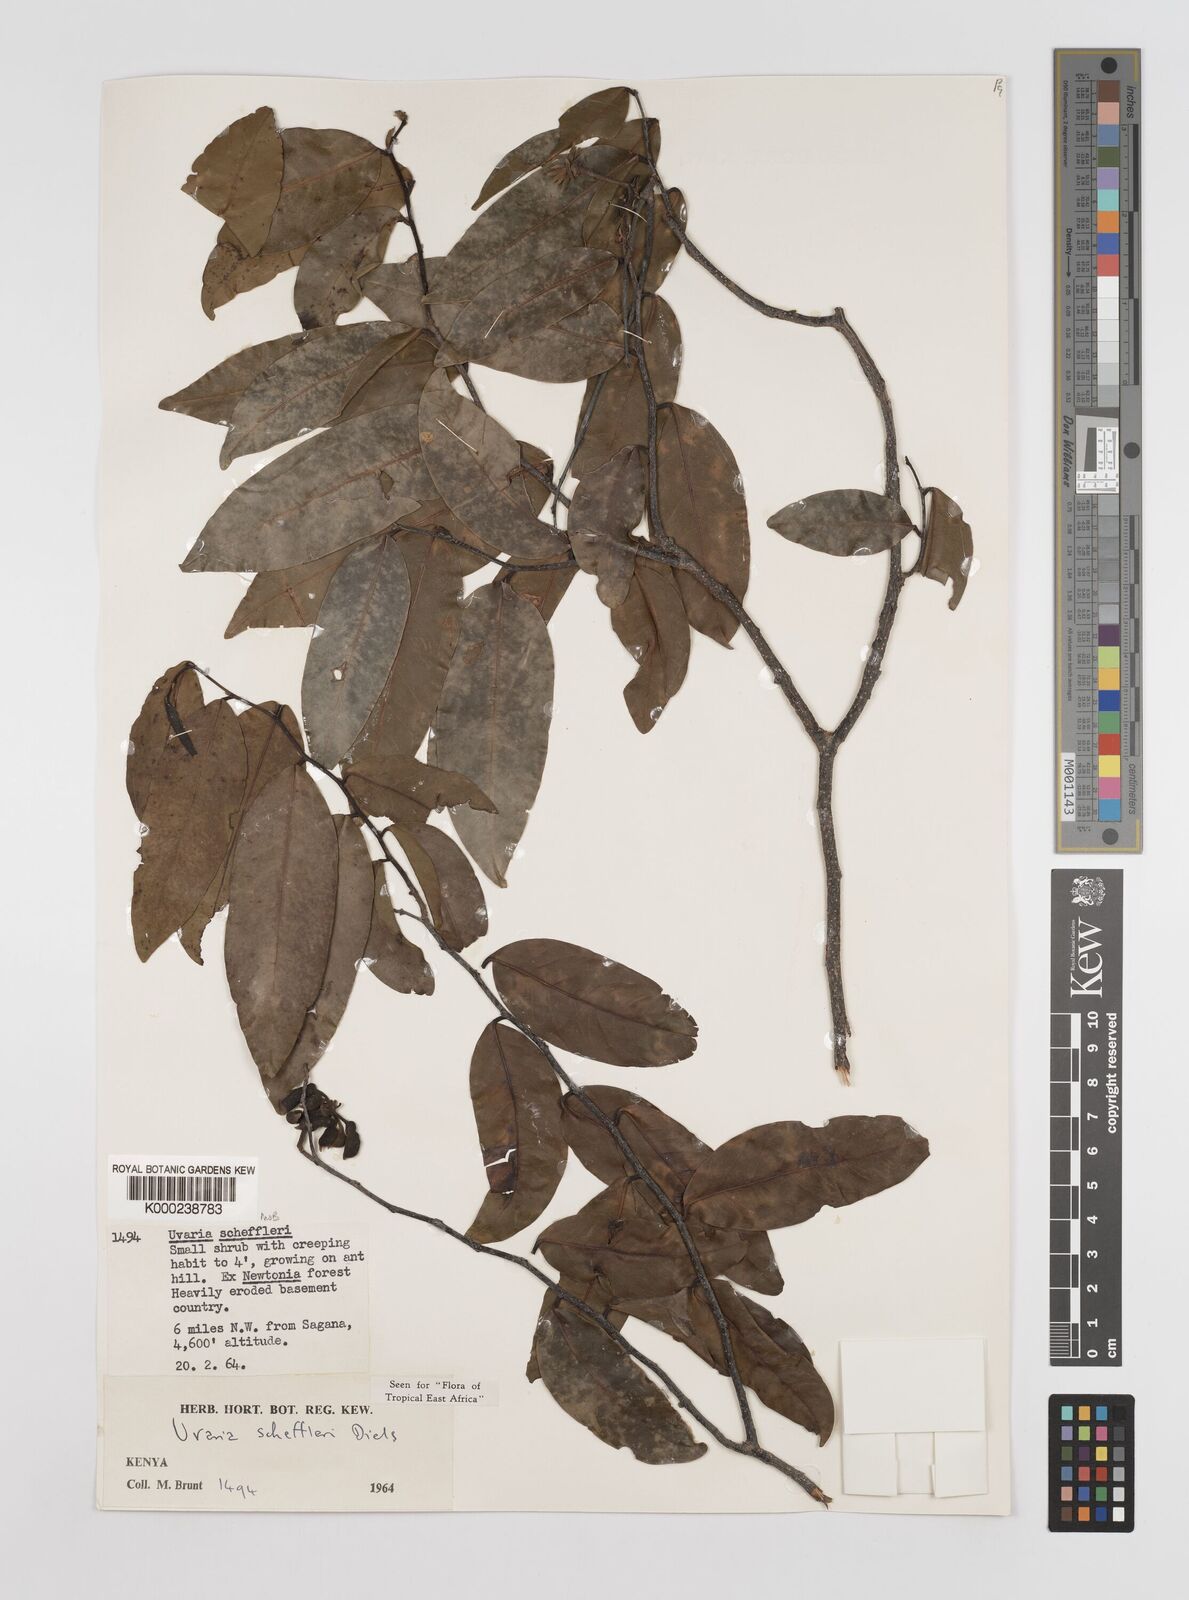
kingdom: Plantae
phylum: Tracheophyta
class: Magnoliopsida
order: Magnoliales
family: Annonaceae
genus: Uvaria
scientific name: Uvaria scheffleri
